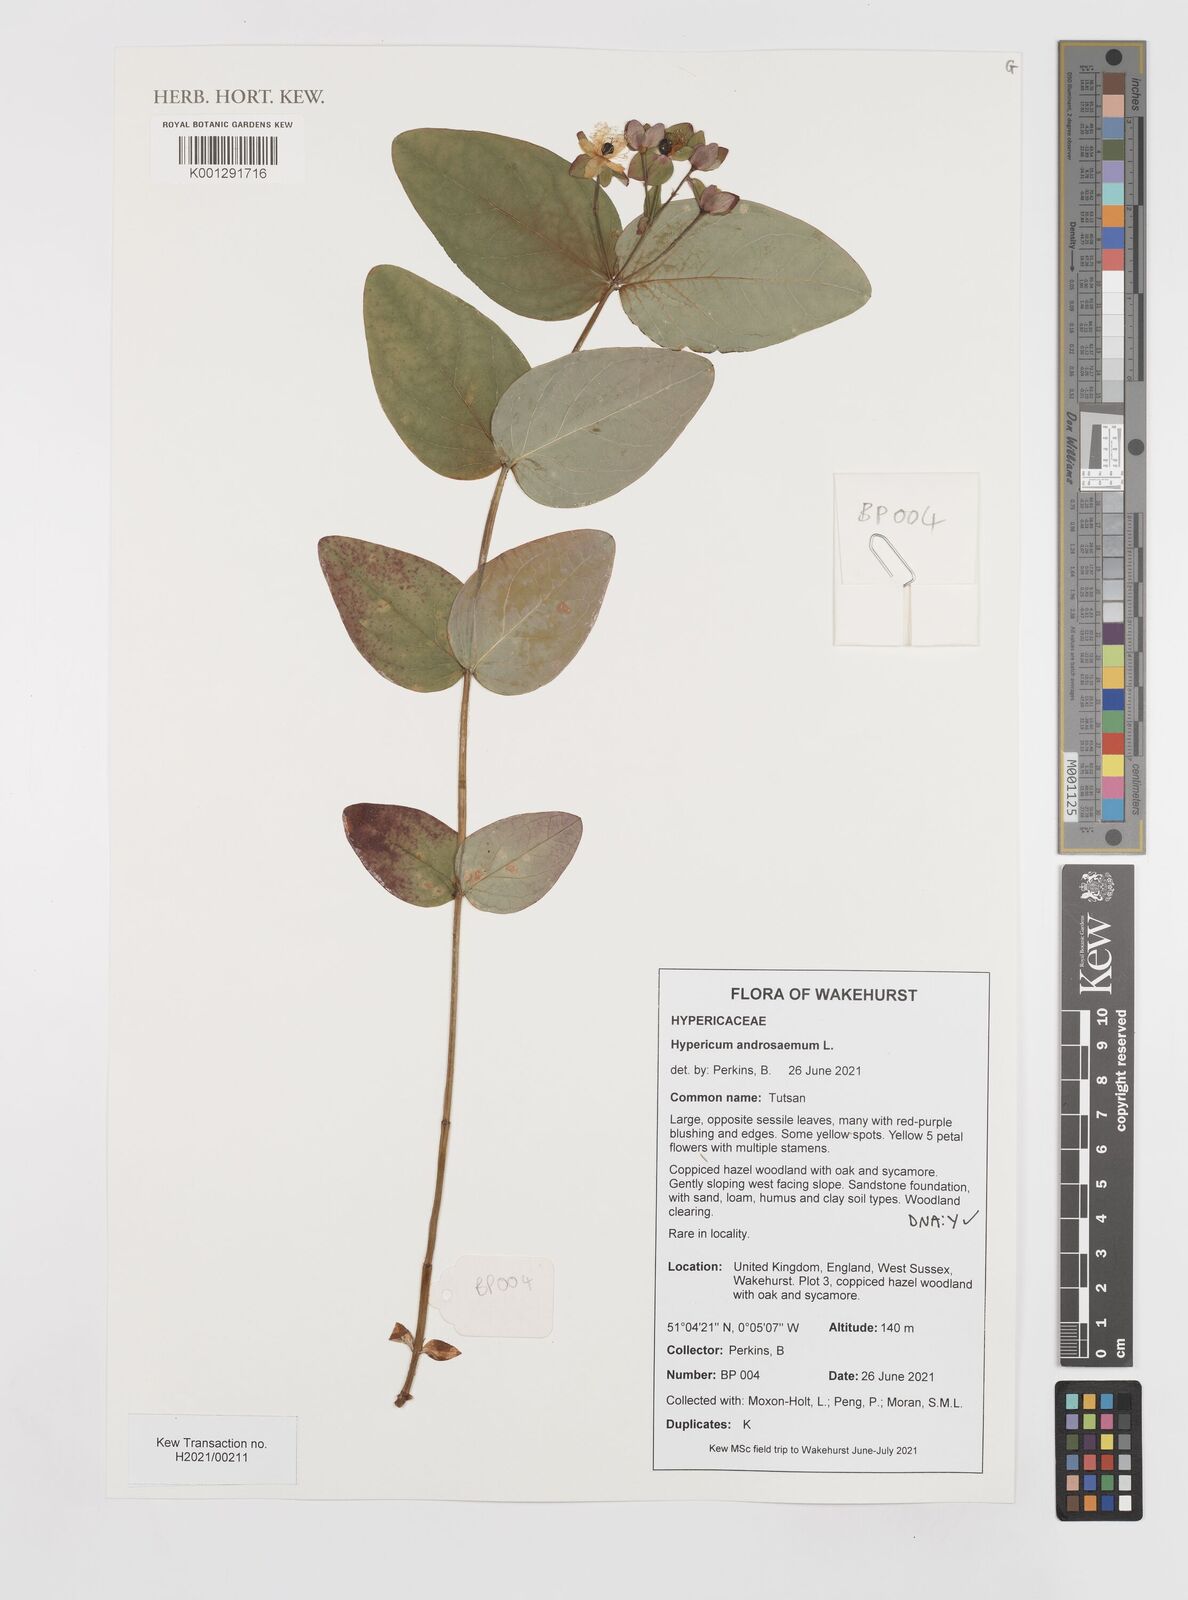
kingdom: Plantae
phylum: Tracheophyta
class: Magnoliopsida
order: Malpighiales
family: Hypericaceae
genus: Hypericum
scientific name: Hypericum androsaemum
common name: Sweet-amber
